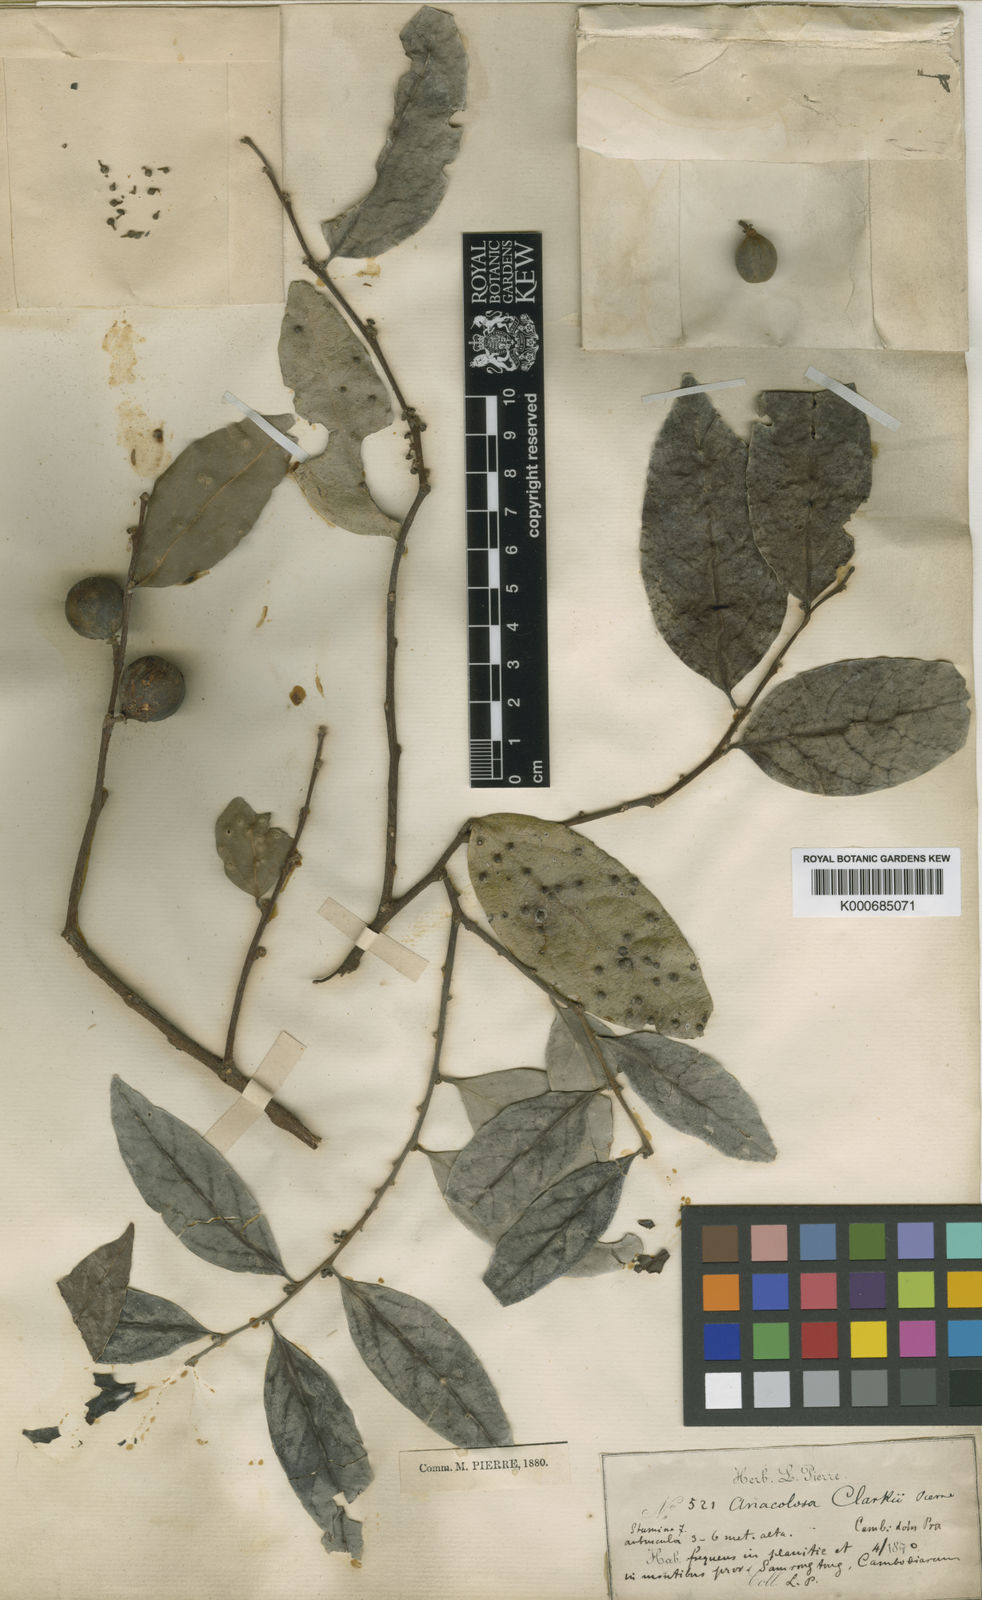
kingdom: Plantae
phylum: Tracheophyta
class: Magnoliopsida
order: Santalales
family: Aptandraceae
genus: Anacolosa
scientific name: Anacolosa clarkii
